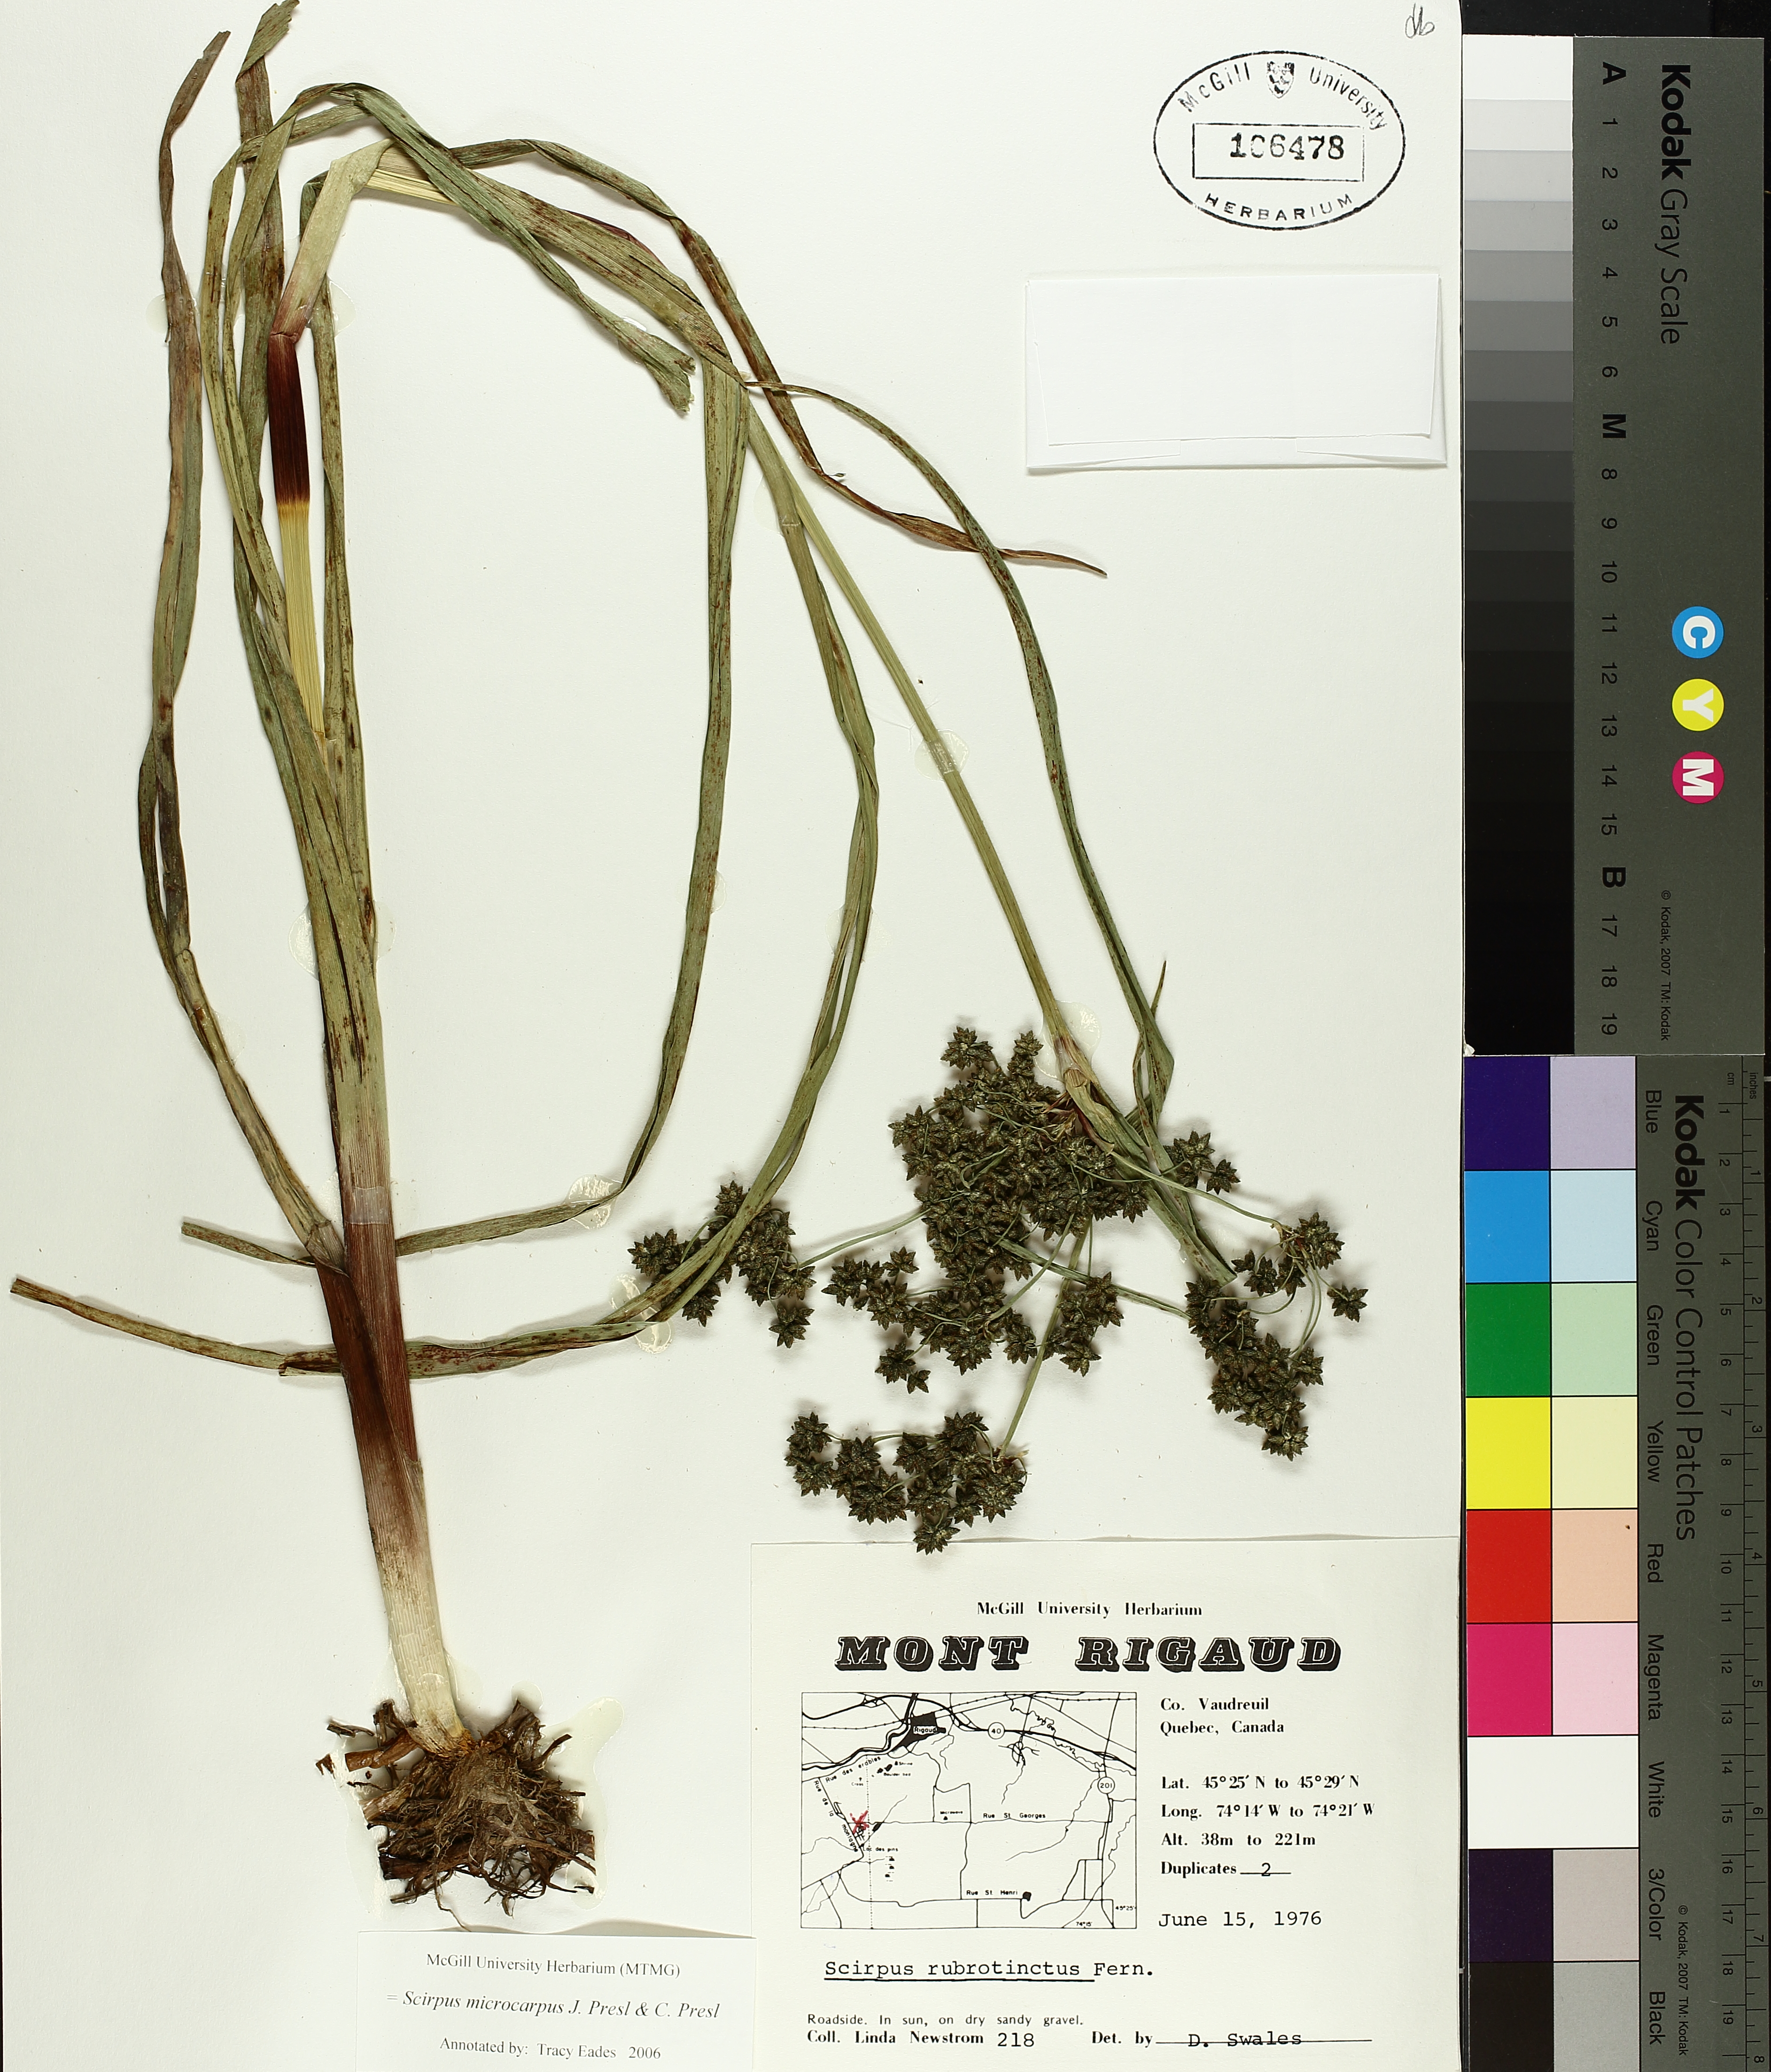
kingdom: Plantae
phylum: Tracheophyta
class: Liliopsida
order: Poales
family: Cyperaceae
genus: Scirpus
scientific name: Scirpus microcarpus
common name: Panicled bulrush
